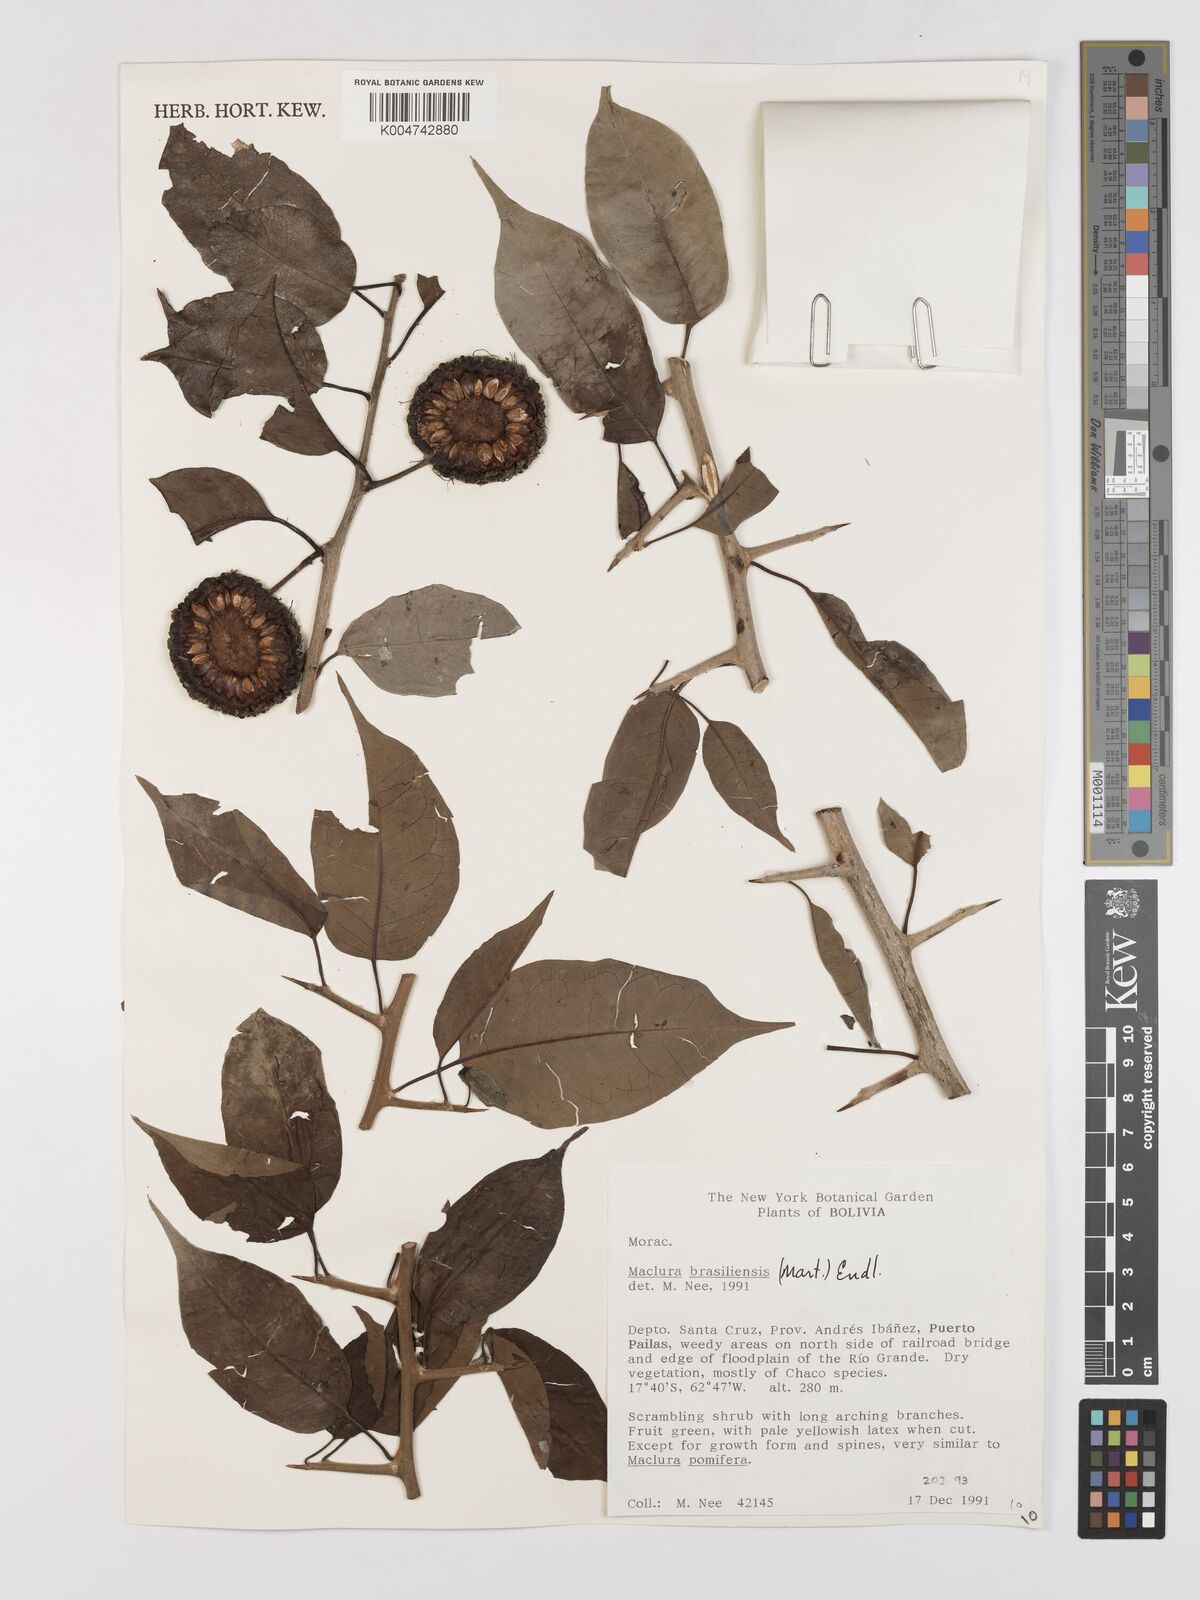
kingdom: Plantae
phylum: Tracheophyta
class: Magnoliopsida
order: Rosales
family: Moraceae
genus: Maclura
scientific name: Maclura brasiliensis
